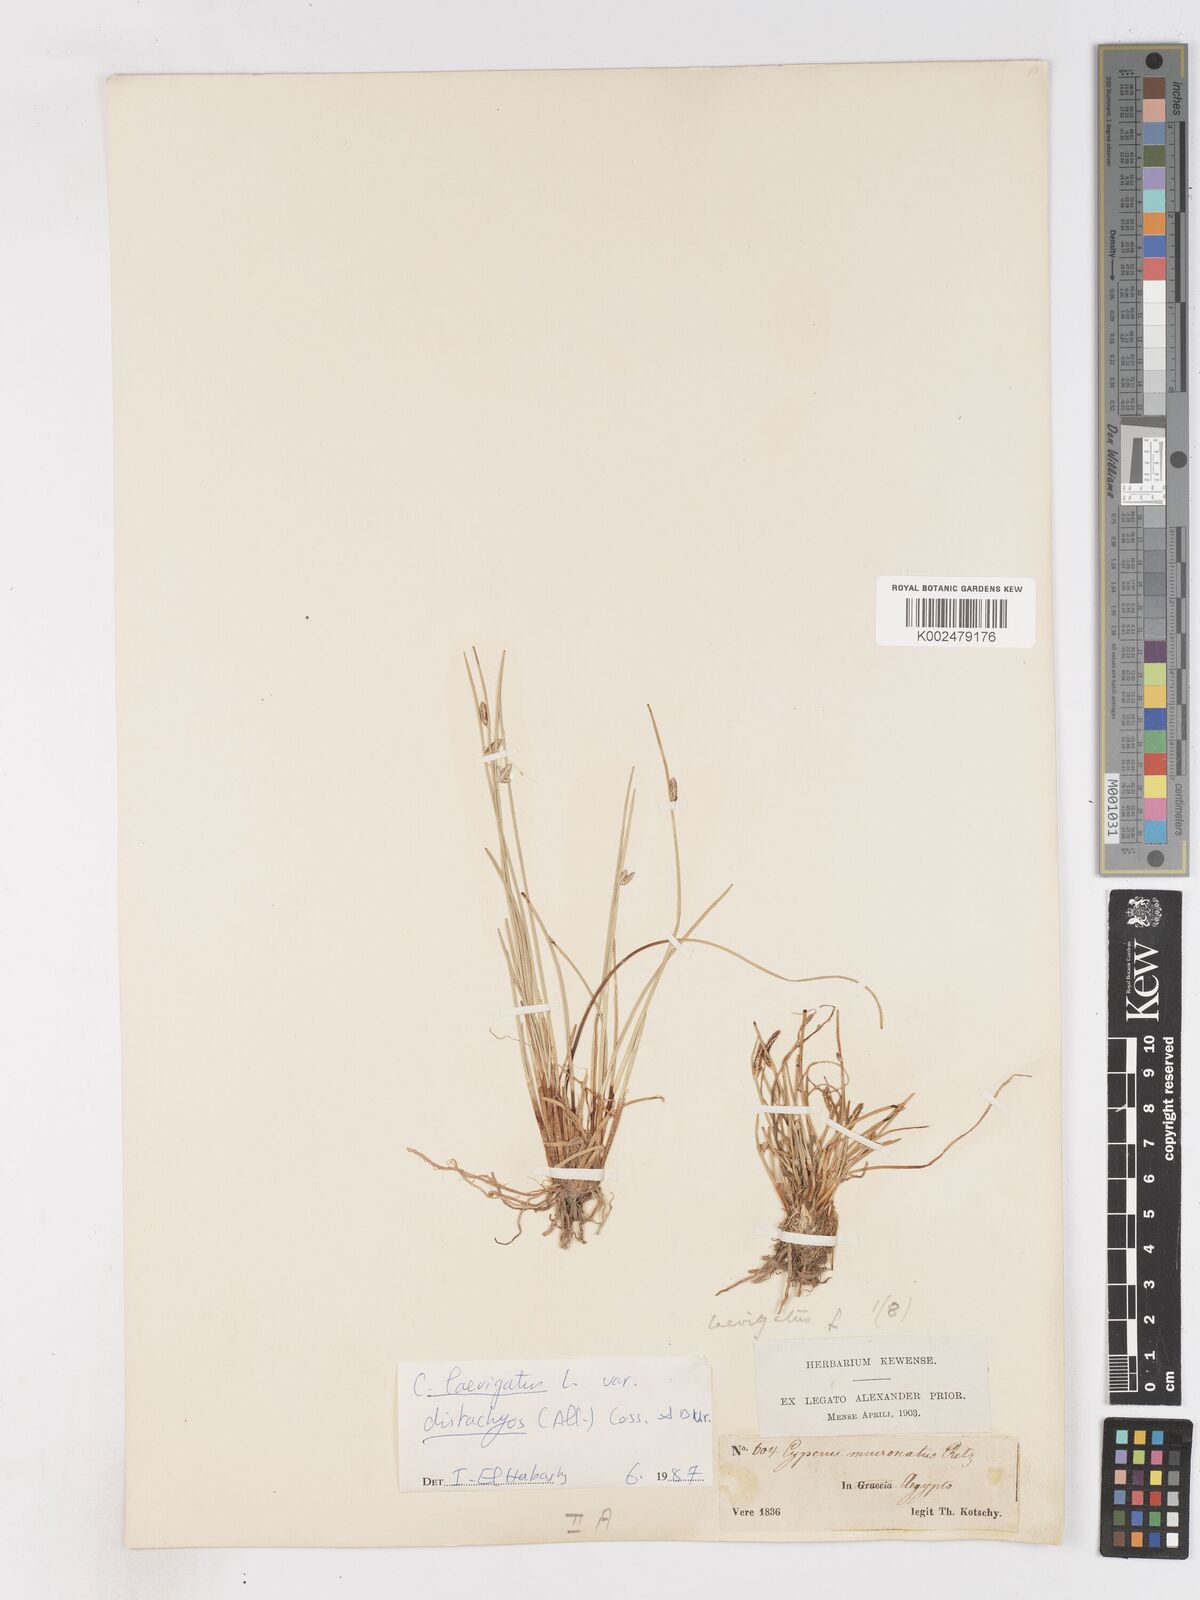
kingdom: Plantae
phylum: Tracheophyta
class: Liliopsida
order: Poales
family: Cyperaceae
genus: Cyperus
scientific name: Cyperus laevigatus
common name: Smooth flat sedge
